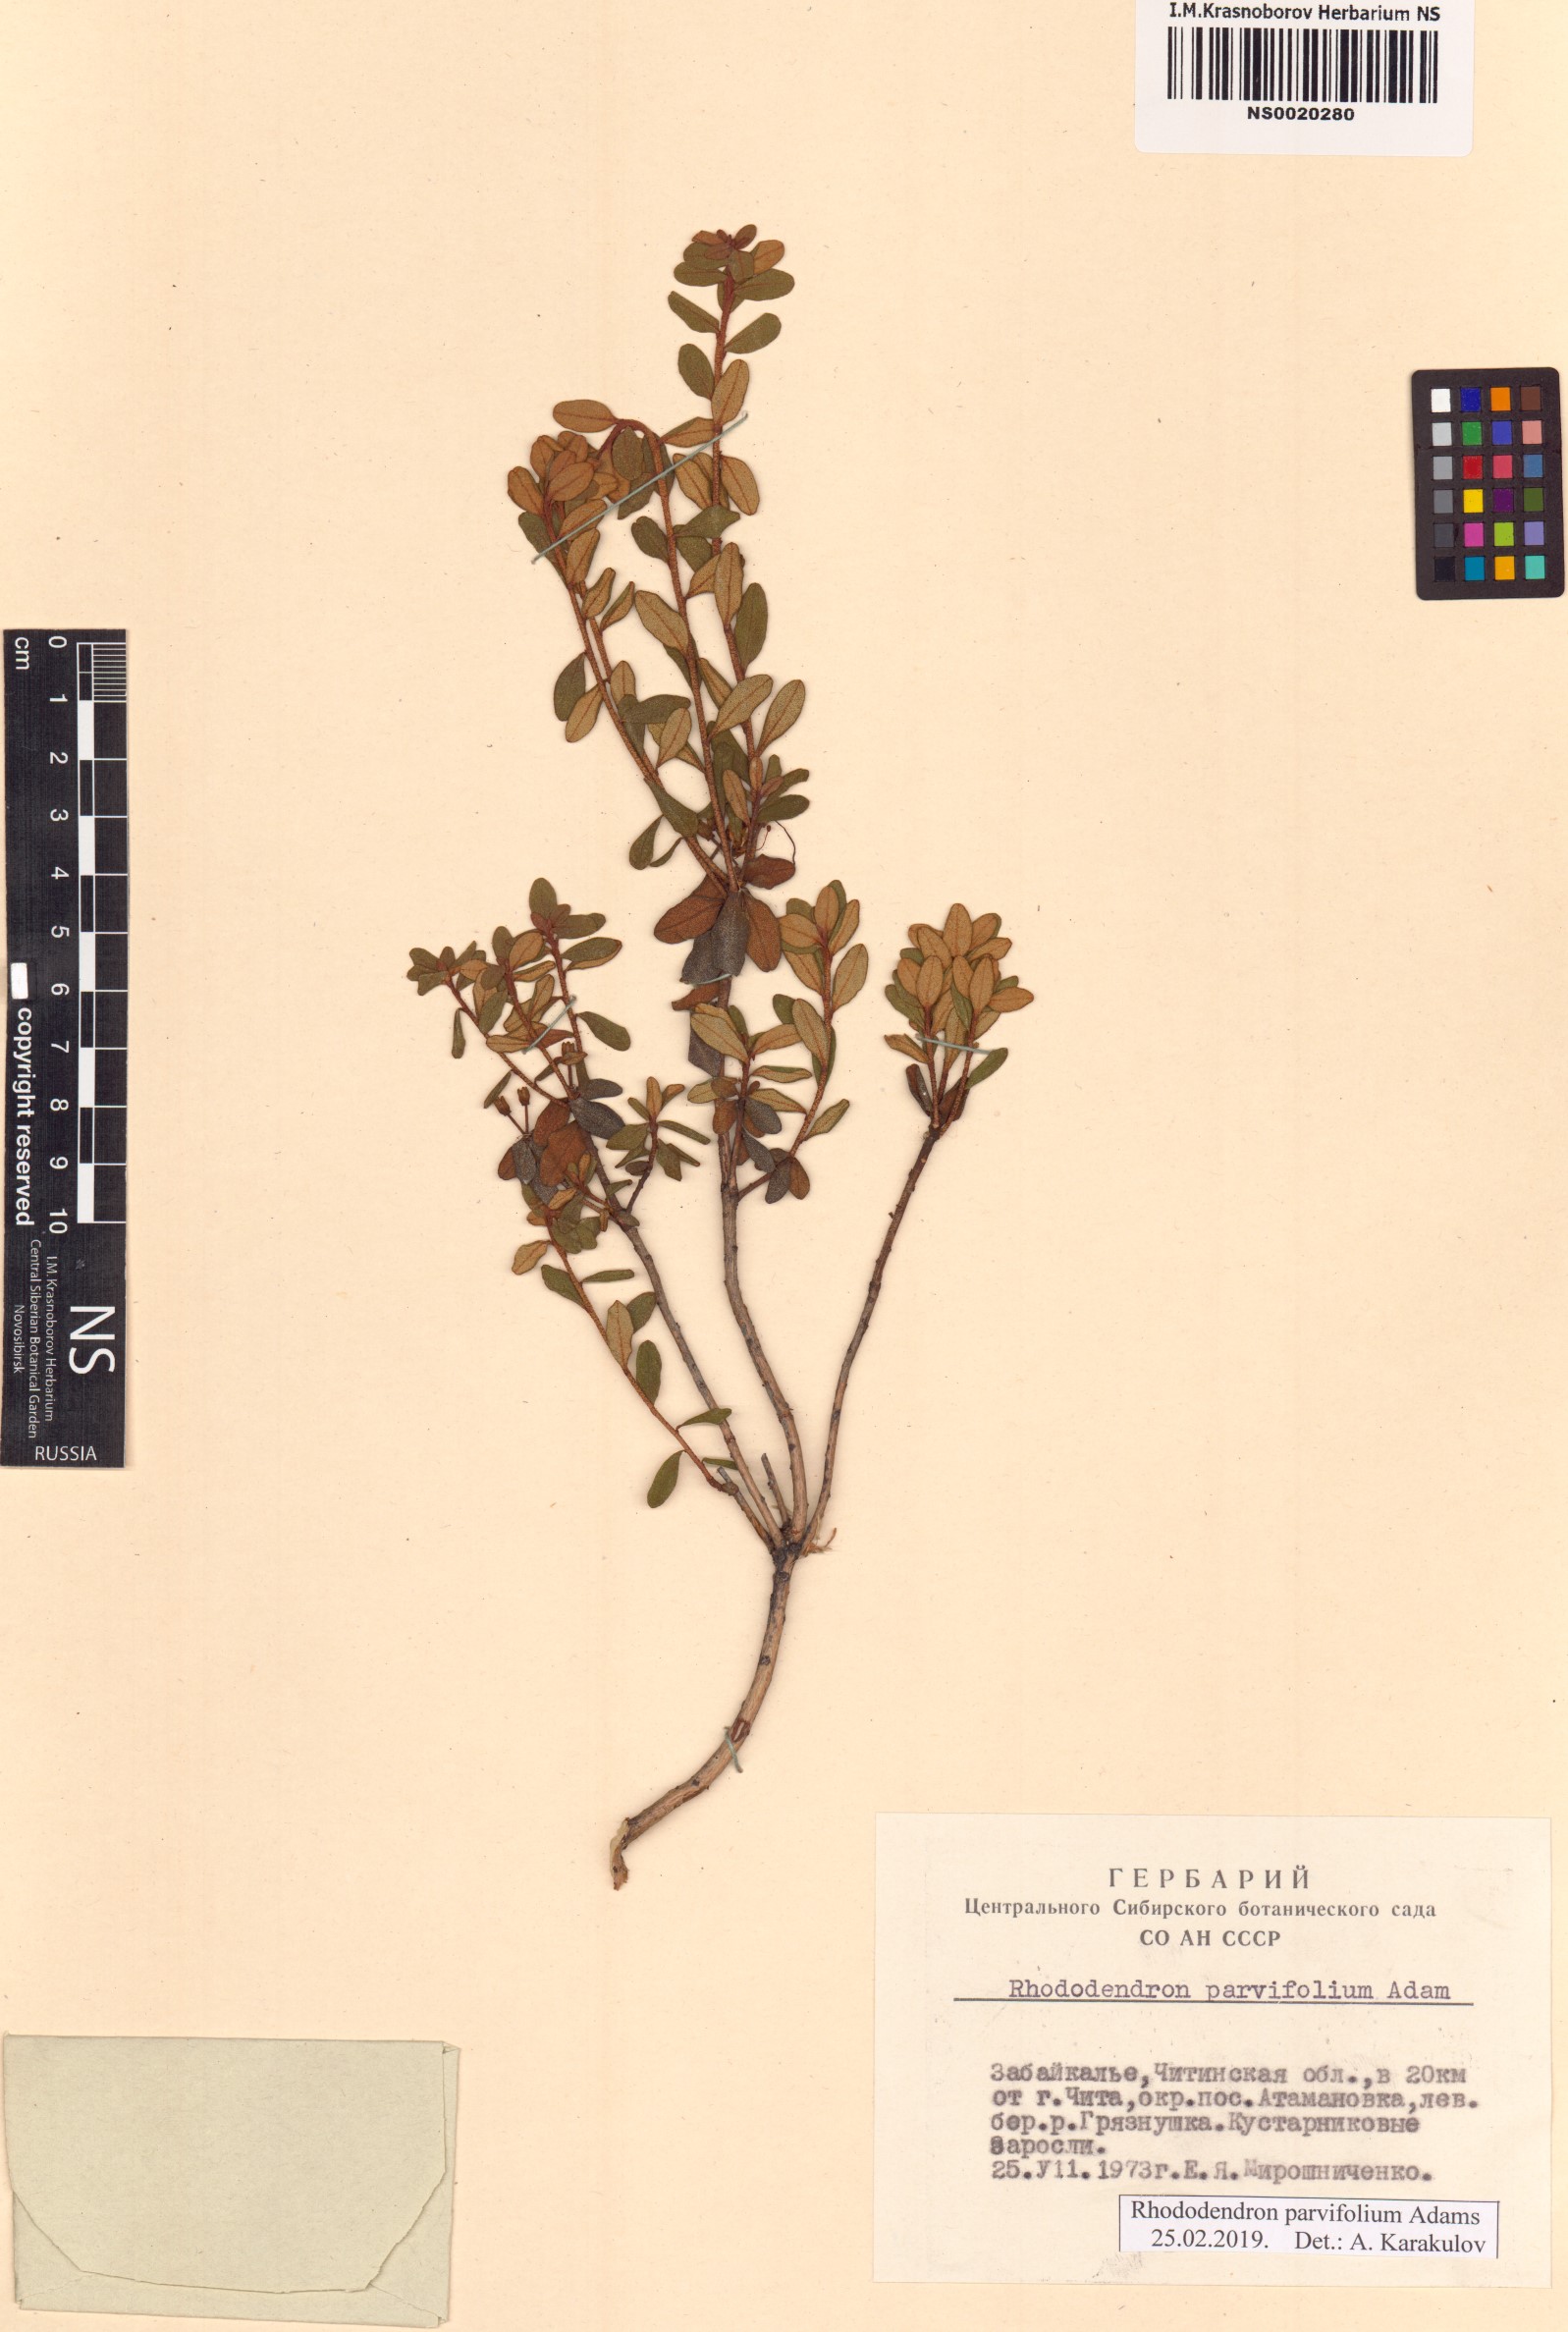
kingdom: Plantae
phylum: Tracheophyta
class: Magnoliopsida
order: Ericales
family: Ericaceae
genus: Rhododendron
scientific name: Rhododendron parvifolium
